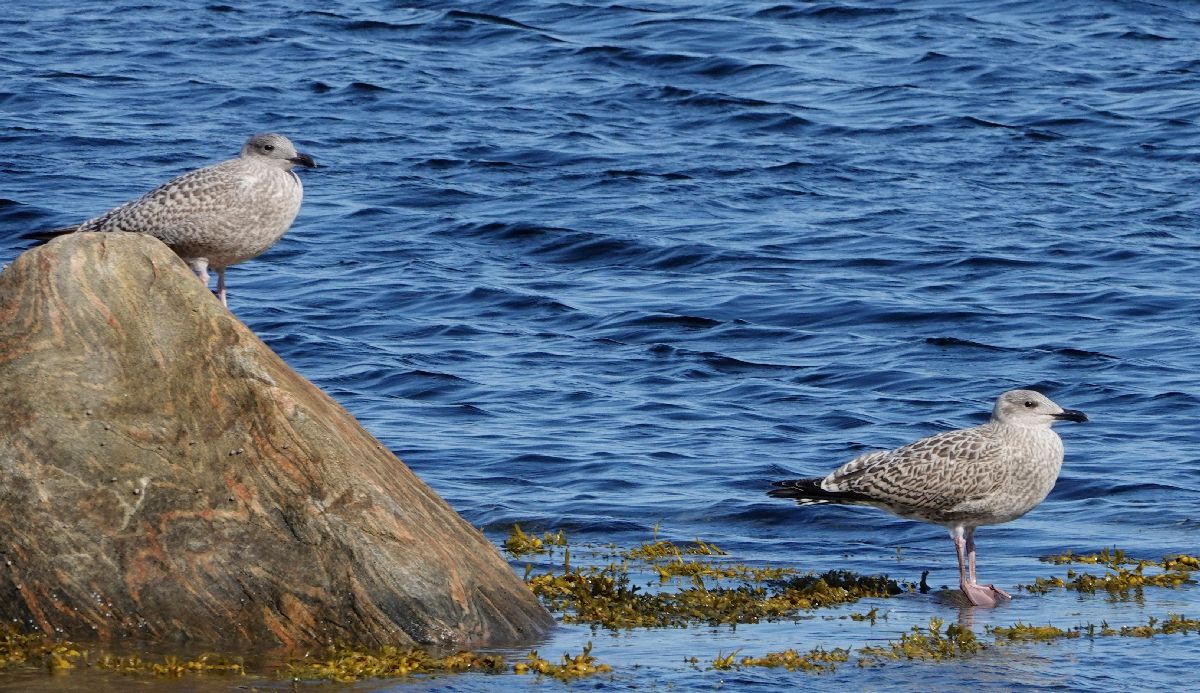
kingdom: Animalia
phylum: Chordata
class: Aves
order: Charadriiformes
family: Laridae
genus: Larus
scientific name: Larus argentatus
